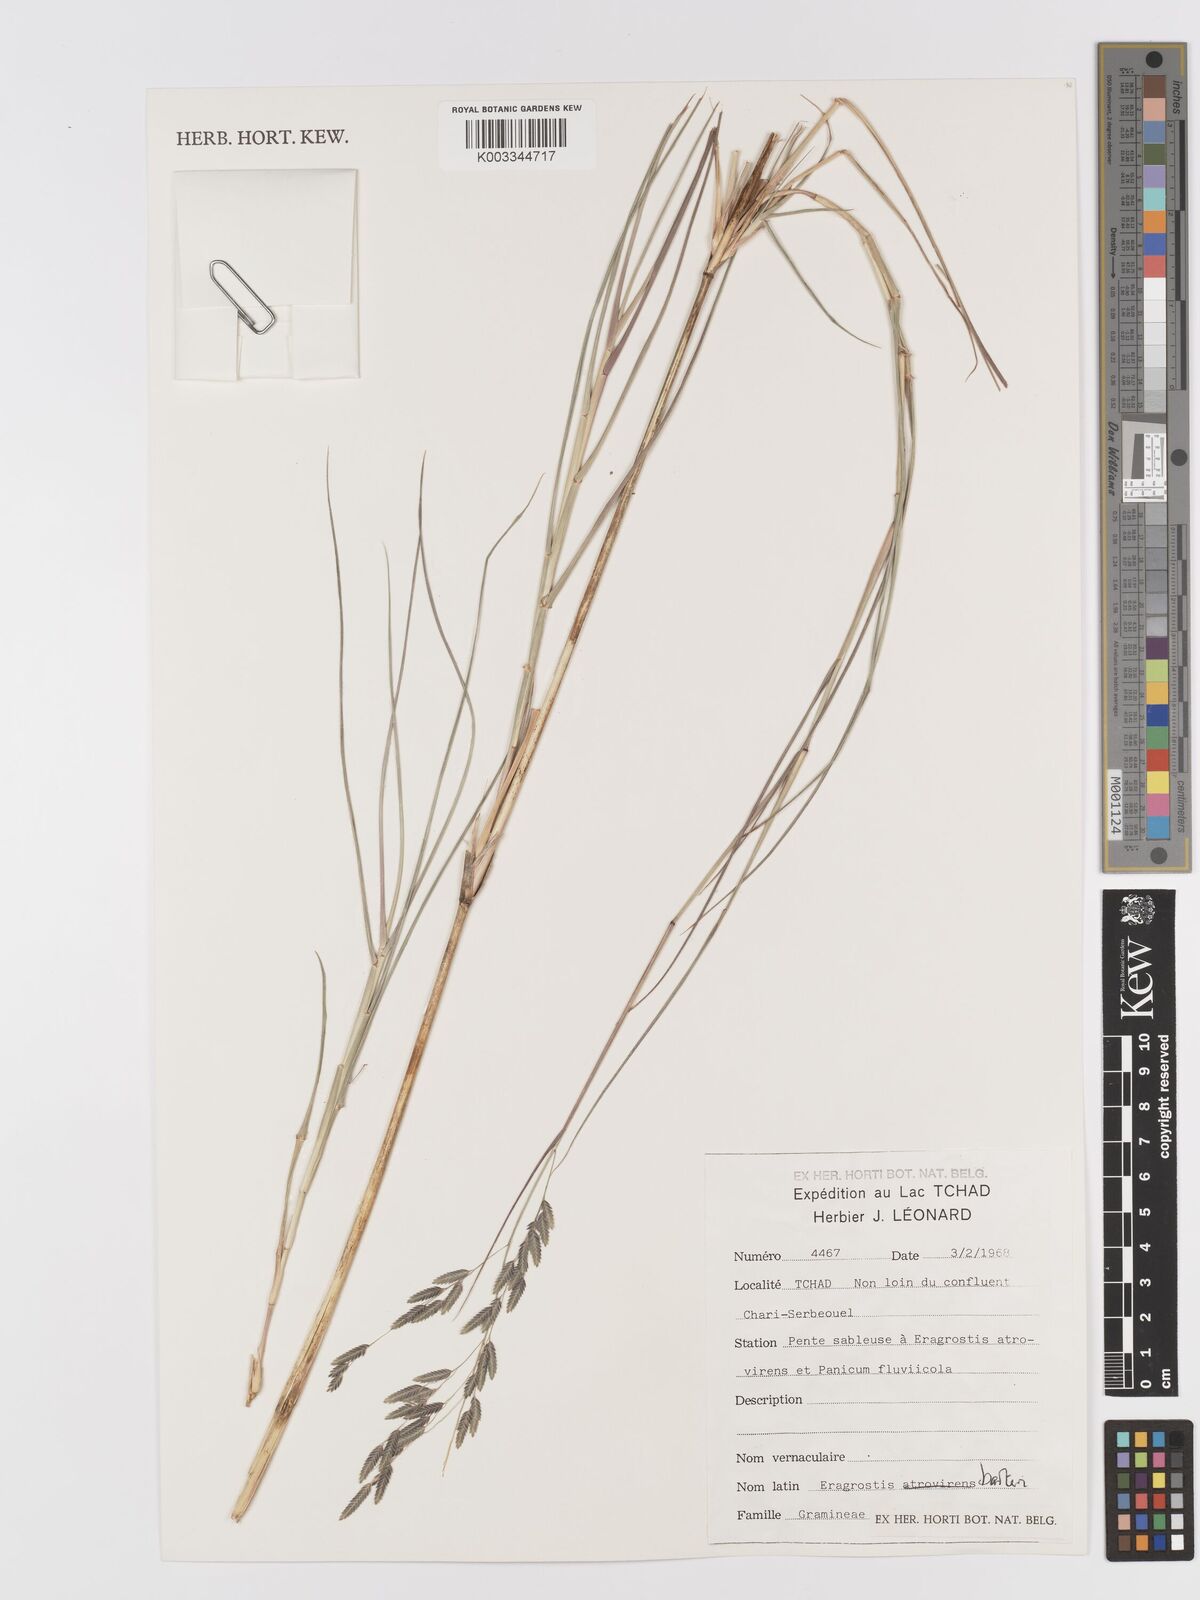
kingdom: Plantae
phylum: Tracheophyta
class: Liliopsida
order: Poales
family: Poaceae
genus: Eragrostis
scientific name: Eragrostis barteri
